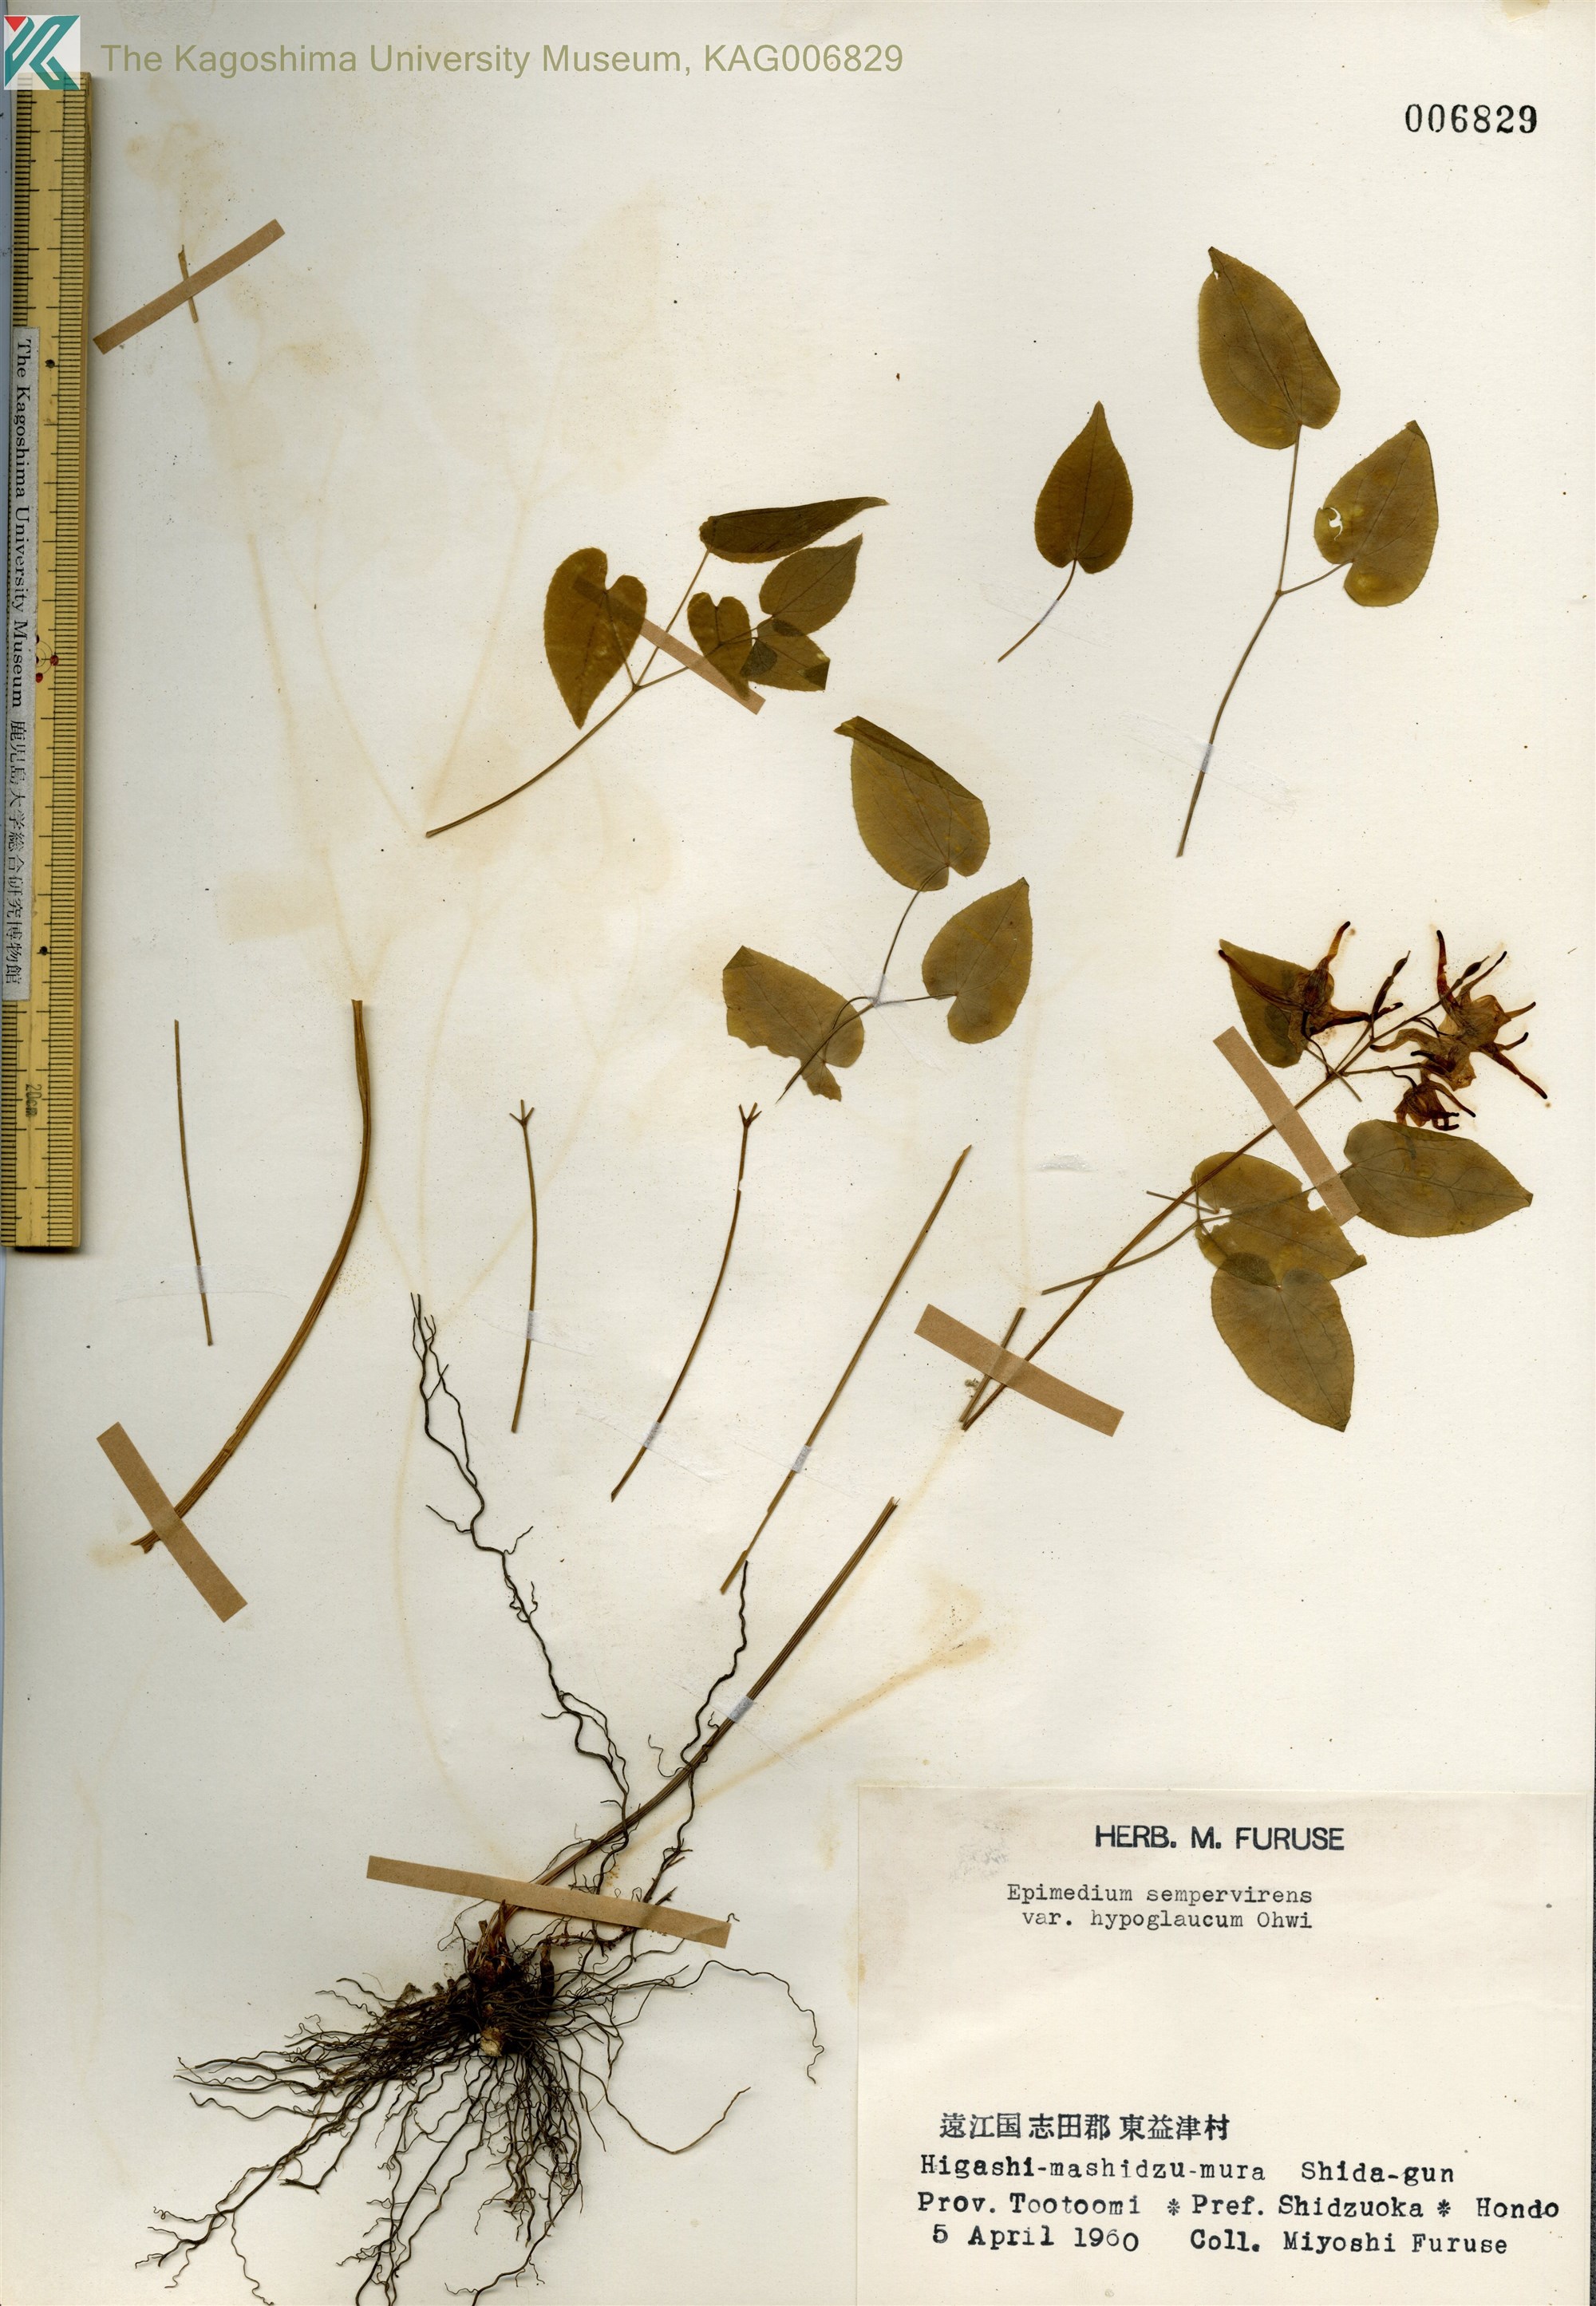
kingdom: Plantae
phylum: Tracheophyta
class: Magnoliopsida
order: Ranunculales
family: Berberidaceae
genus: Epimedium
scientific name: Epimedium sempervirens
